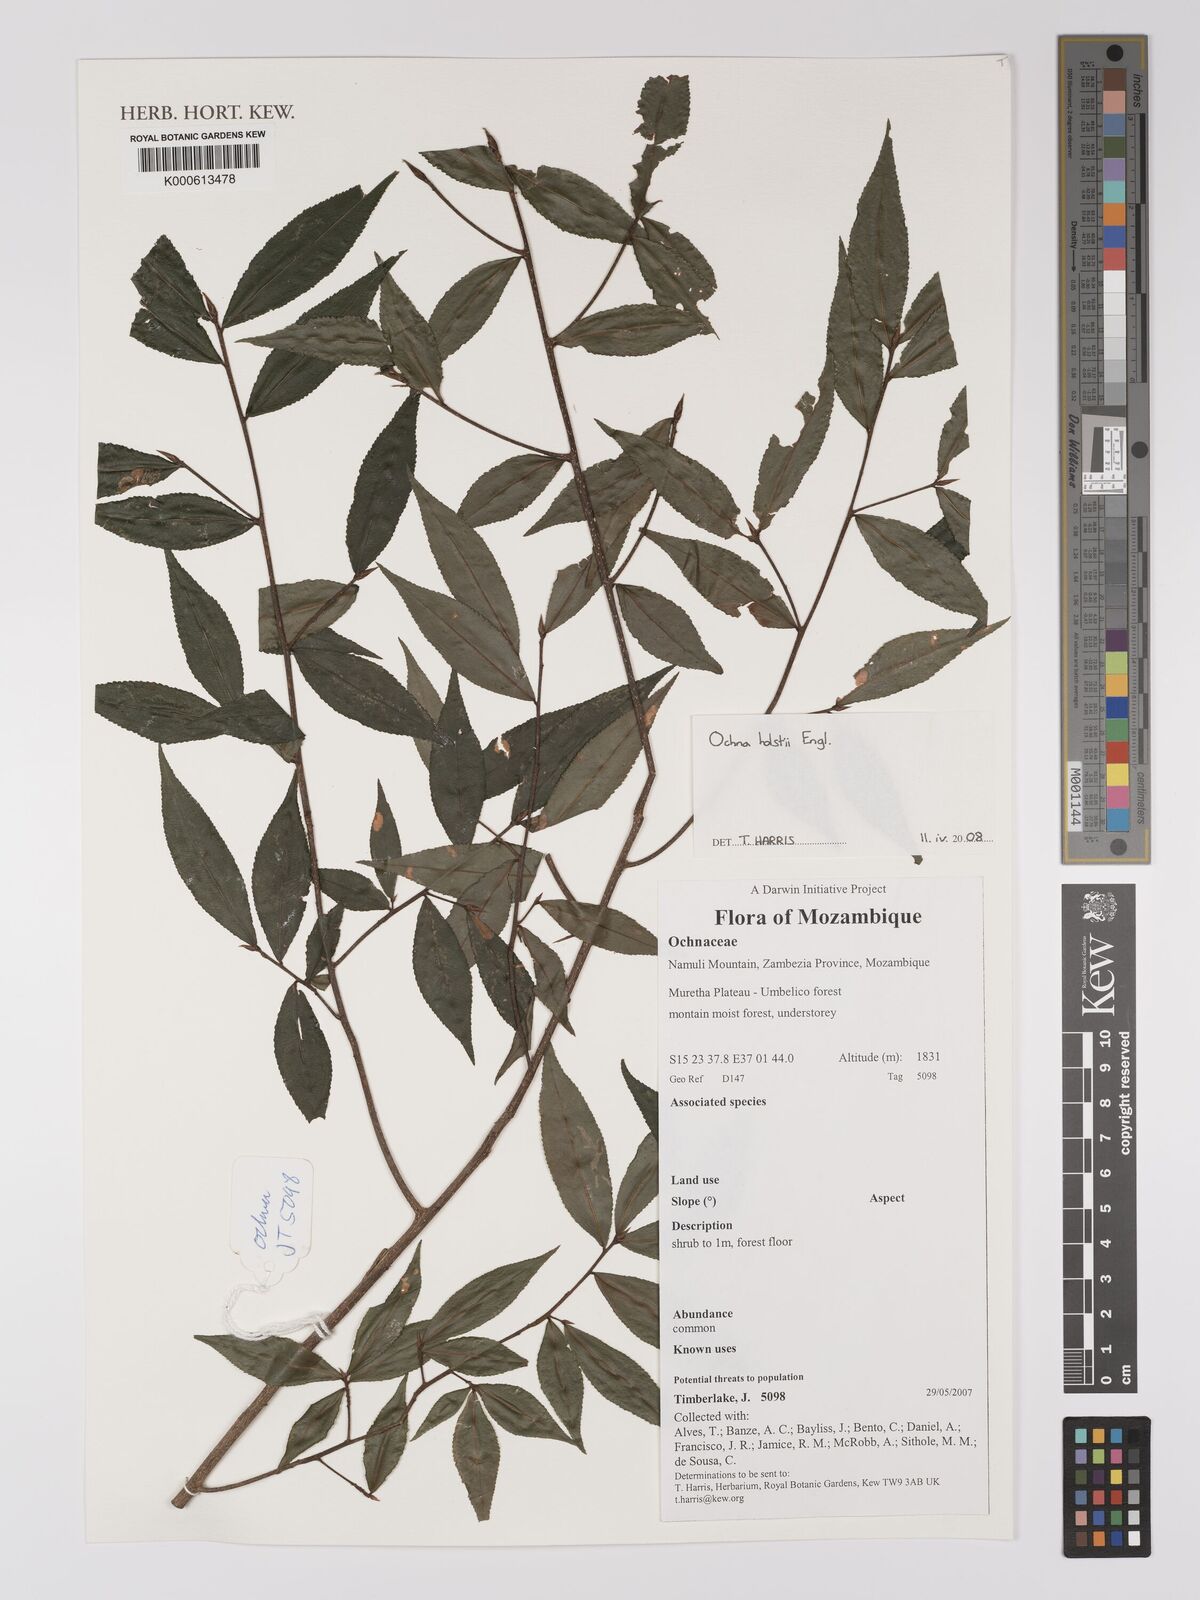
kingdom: Plantae
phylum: Tracheophyta
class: Magnoliopsida
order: Malpighiales
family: Ochnaceae
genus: Ochna
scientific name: Ochna holstii
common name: Red ironwood
